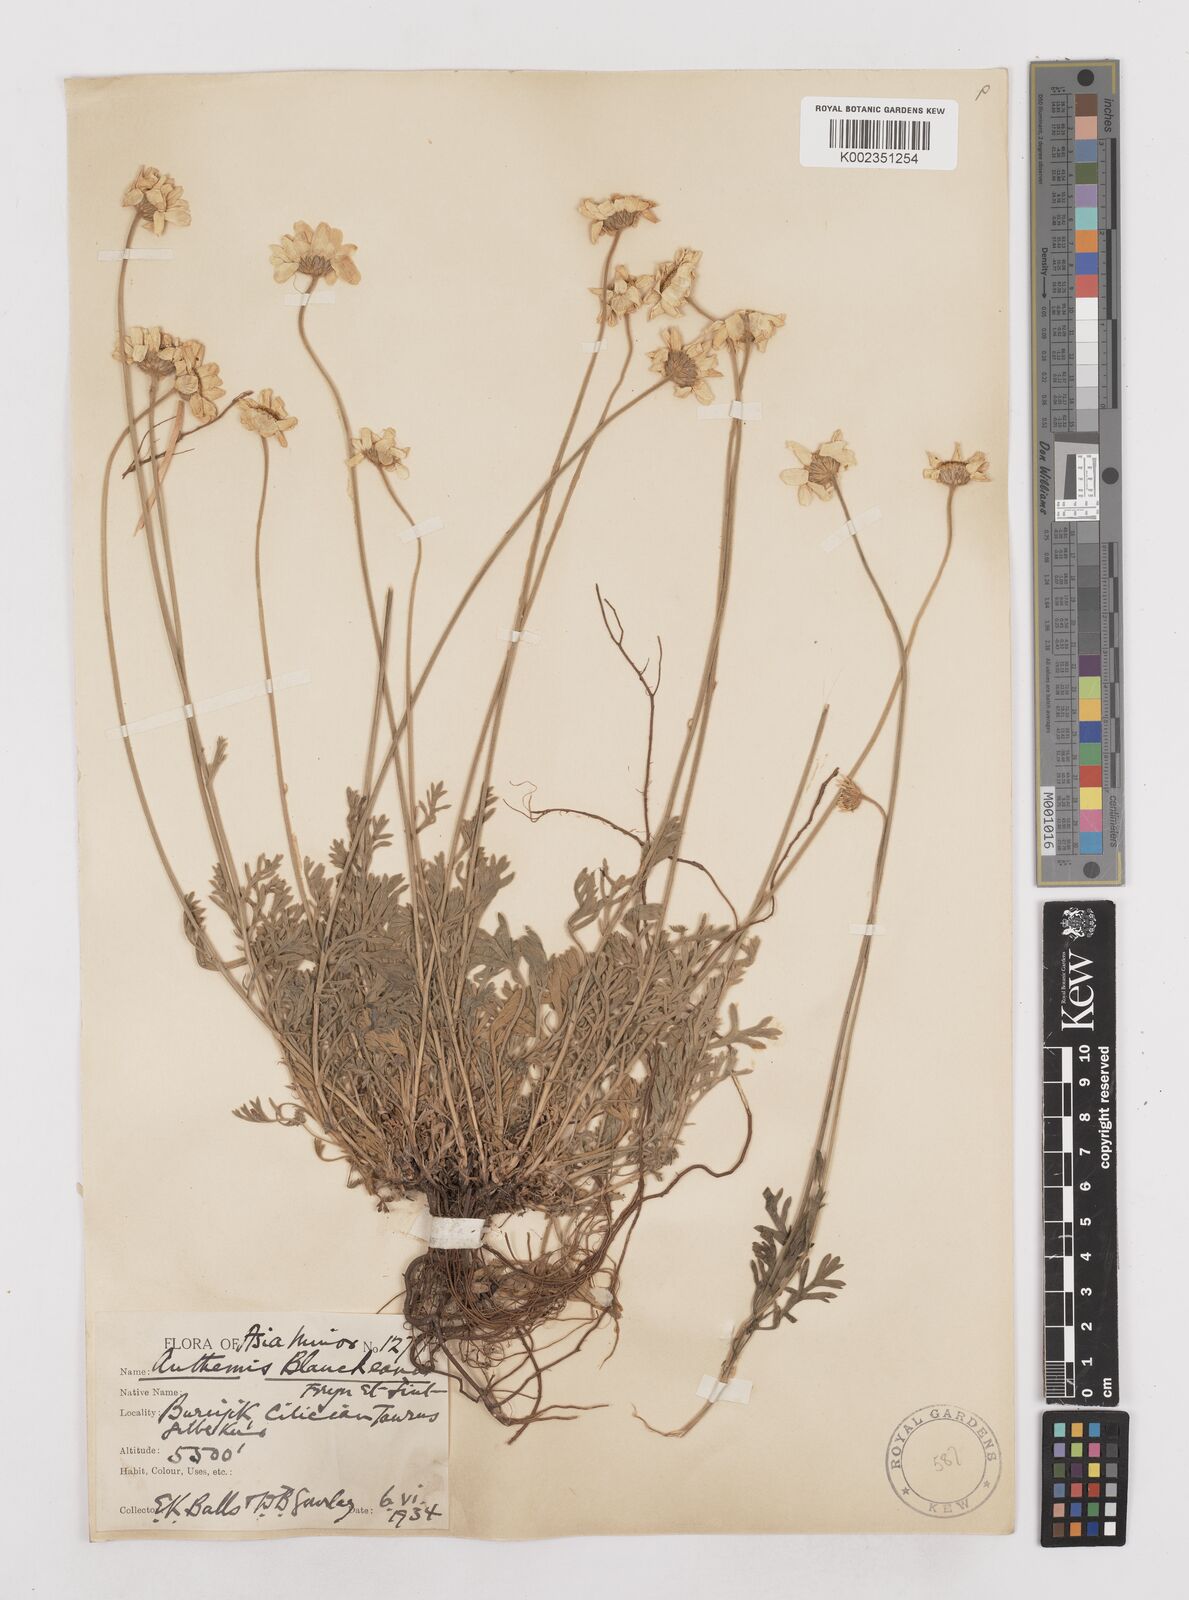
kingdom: Plantae
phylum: Tracheophyta
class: Magnoliopsida
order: Asterales
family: Asteraceae
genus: Anthemis
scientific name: Anthemis cretica
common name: Mountain dog-daisy
